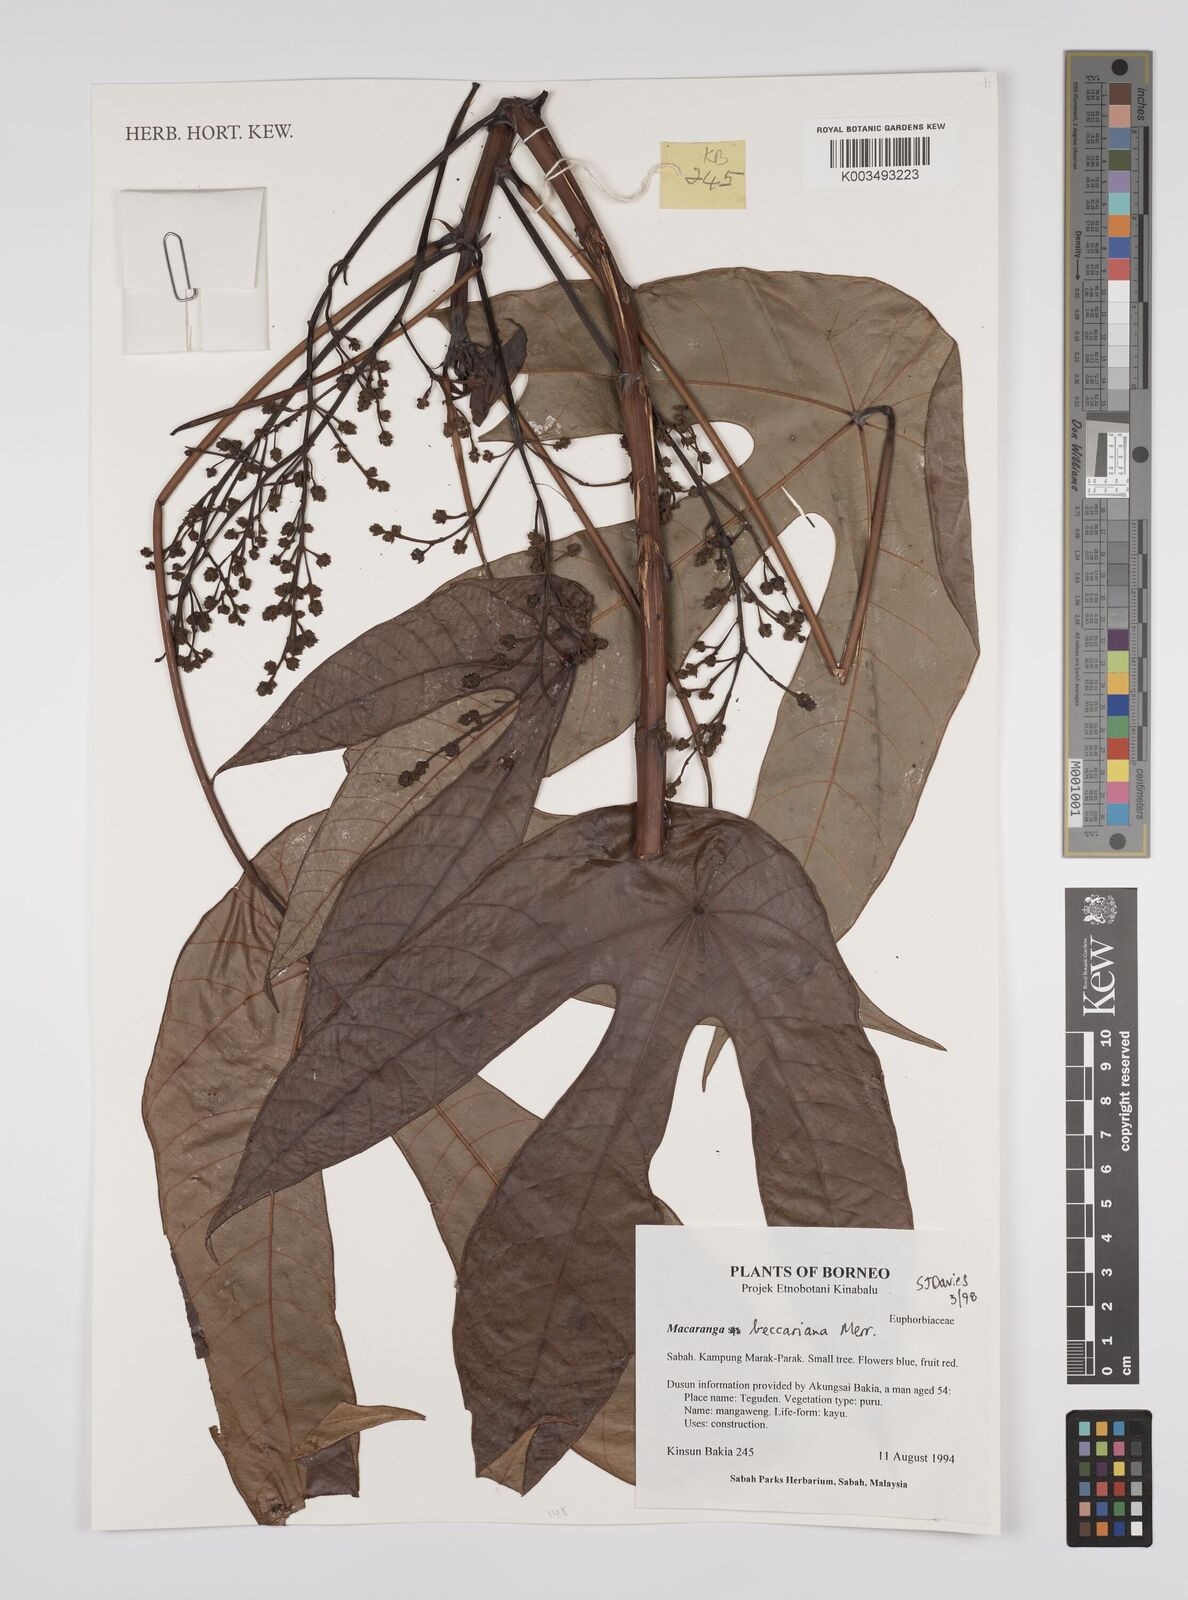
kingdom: Plantae
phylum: Tracheophyta
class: Magnoliopsida
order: Malpighiales
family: Euphorbiaceae
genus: Macaranga
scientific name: Macaranga beccariana
